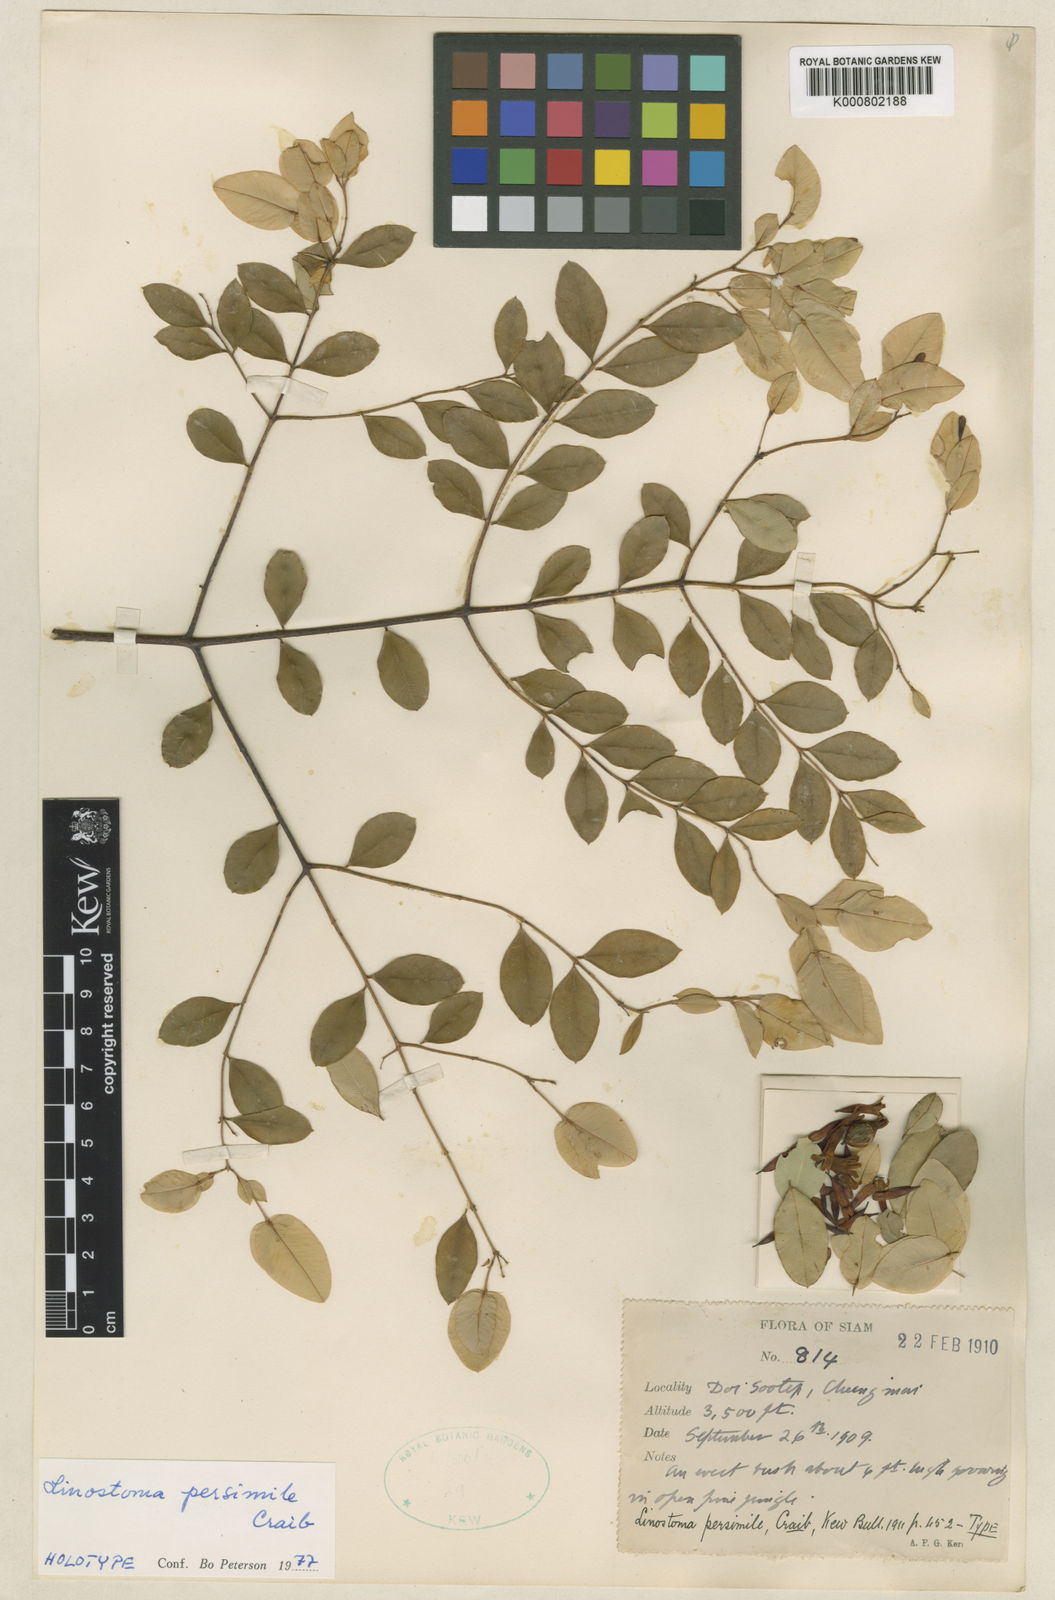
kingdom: Plantae
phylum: Tracheophyta
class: Magnoliopsida
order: Malvales
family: Thymelaeaceae
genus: Linostoma
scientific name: Linostoma persimile
